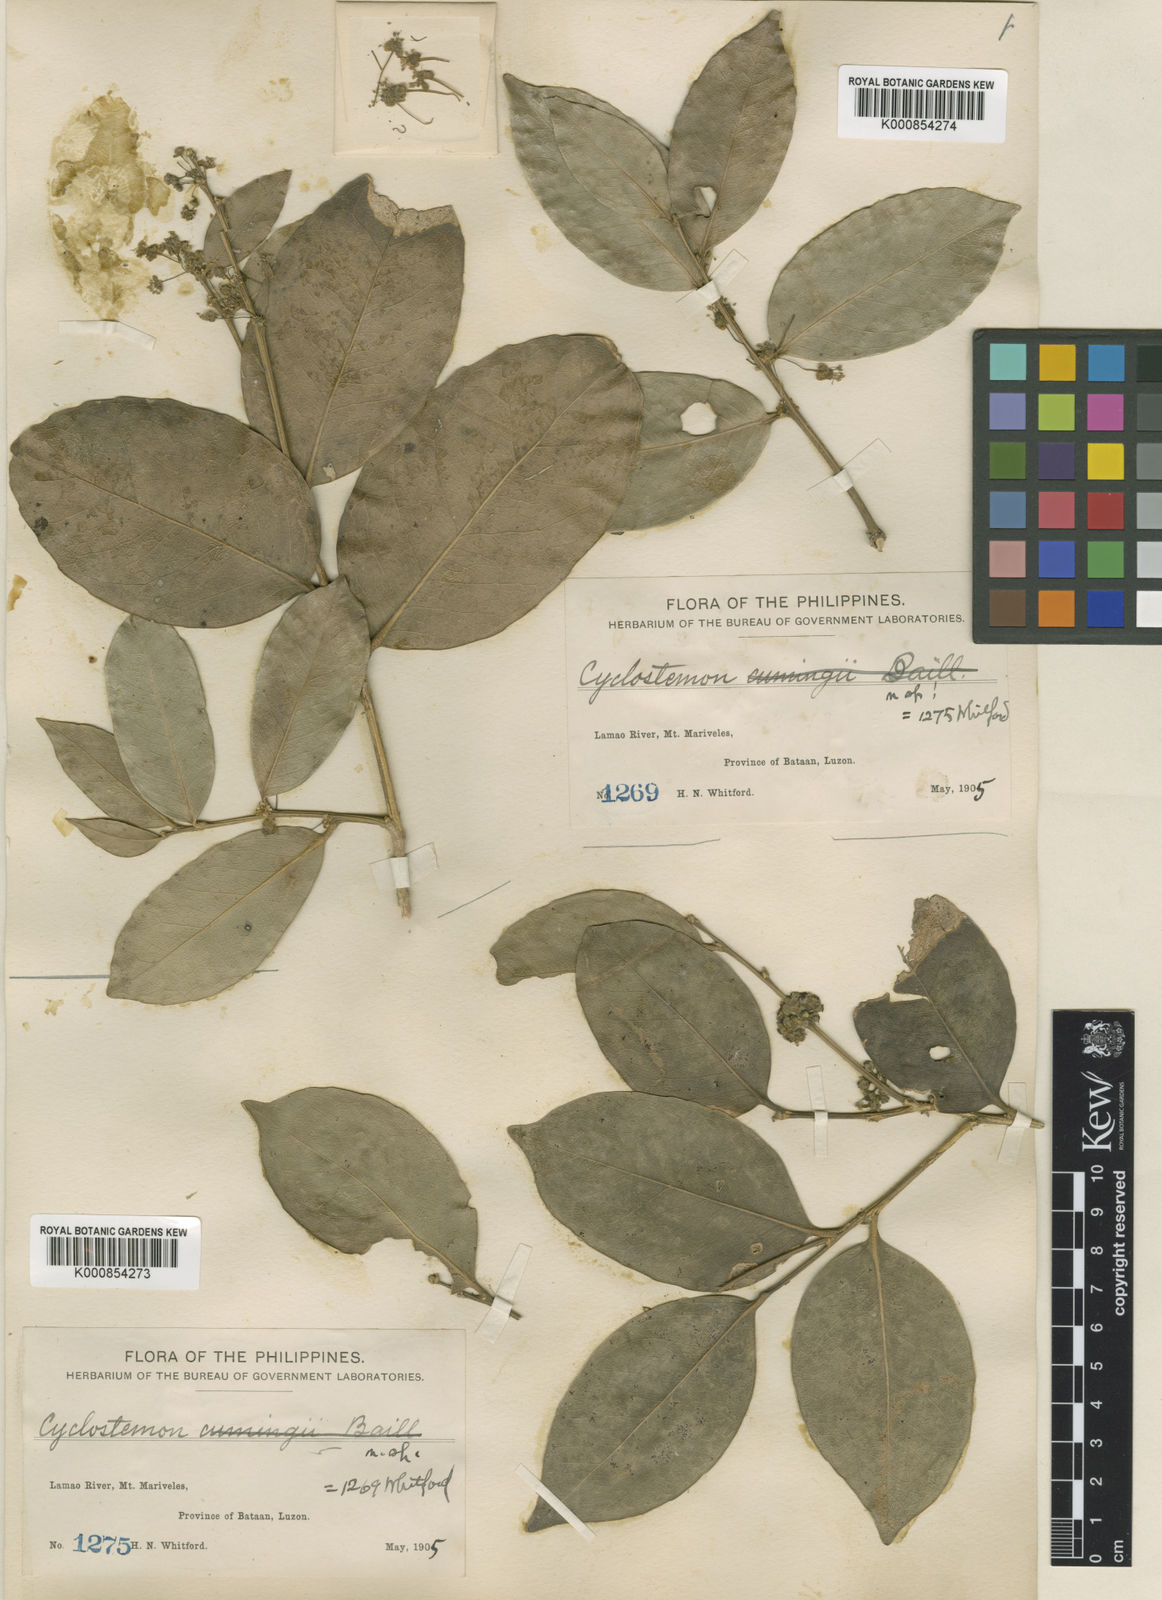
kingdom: Plantae
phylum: Tracheophyta
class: Magnoliopsida
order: Malpighiales
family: Putranjivaceae
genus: Drypetes
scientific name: Drypetes littoralis
